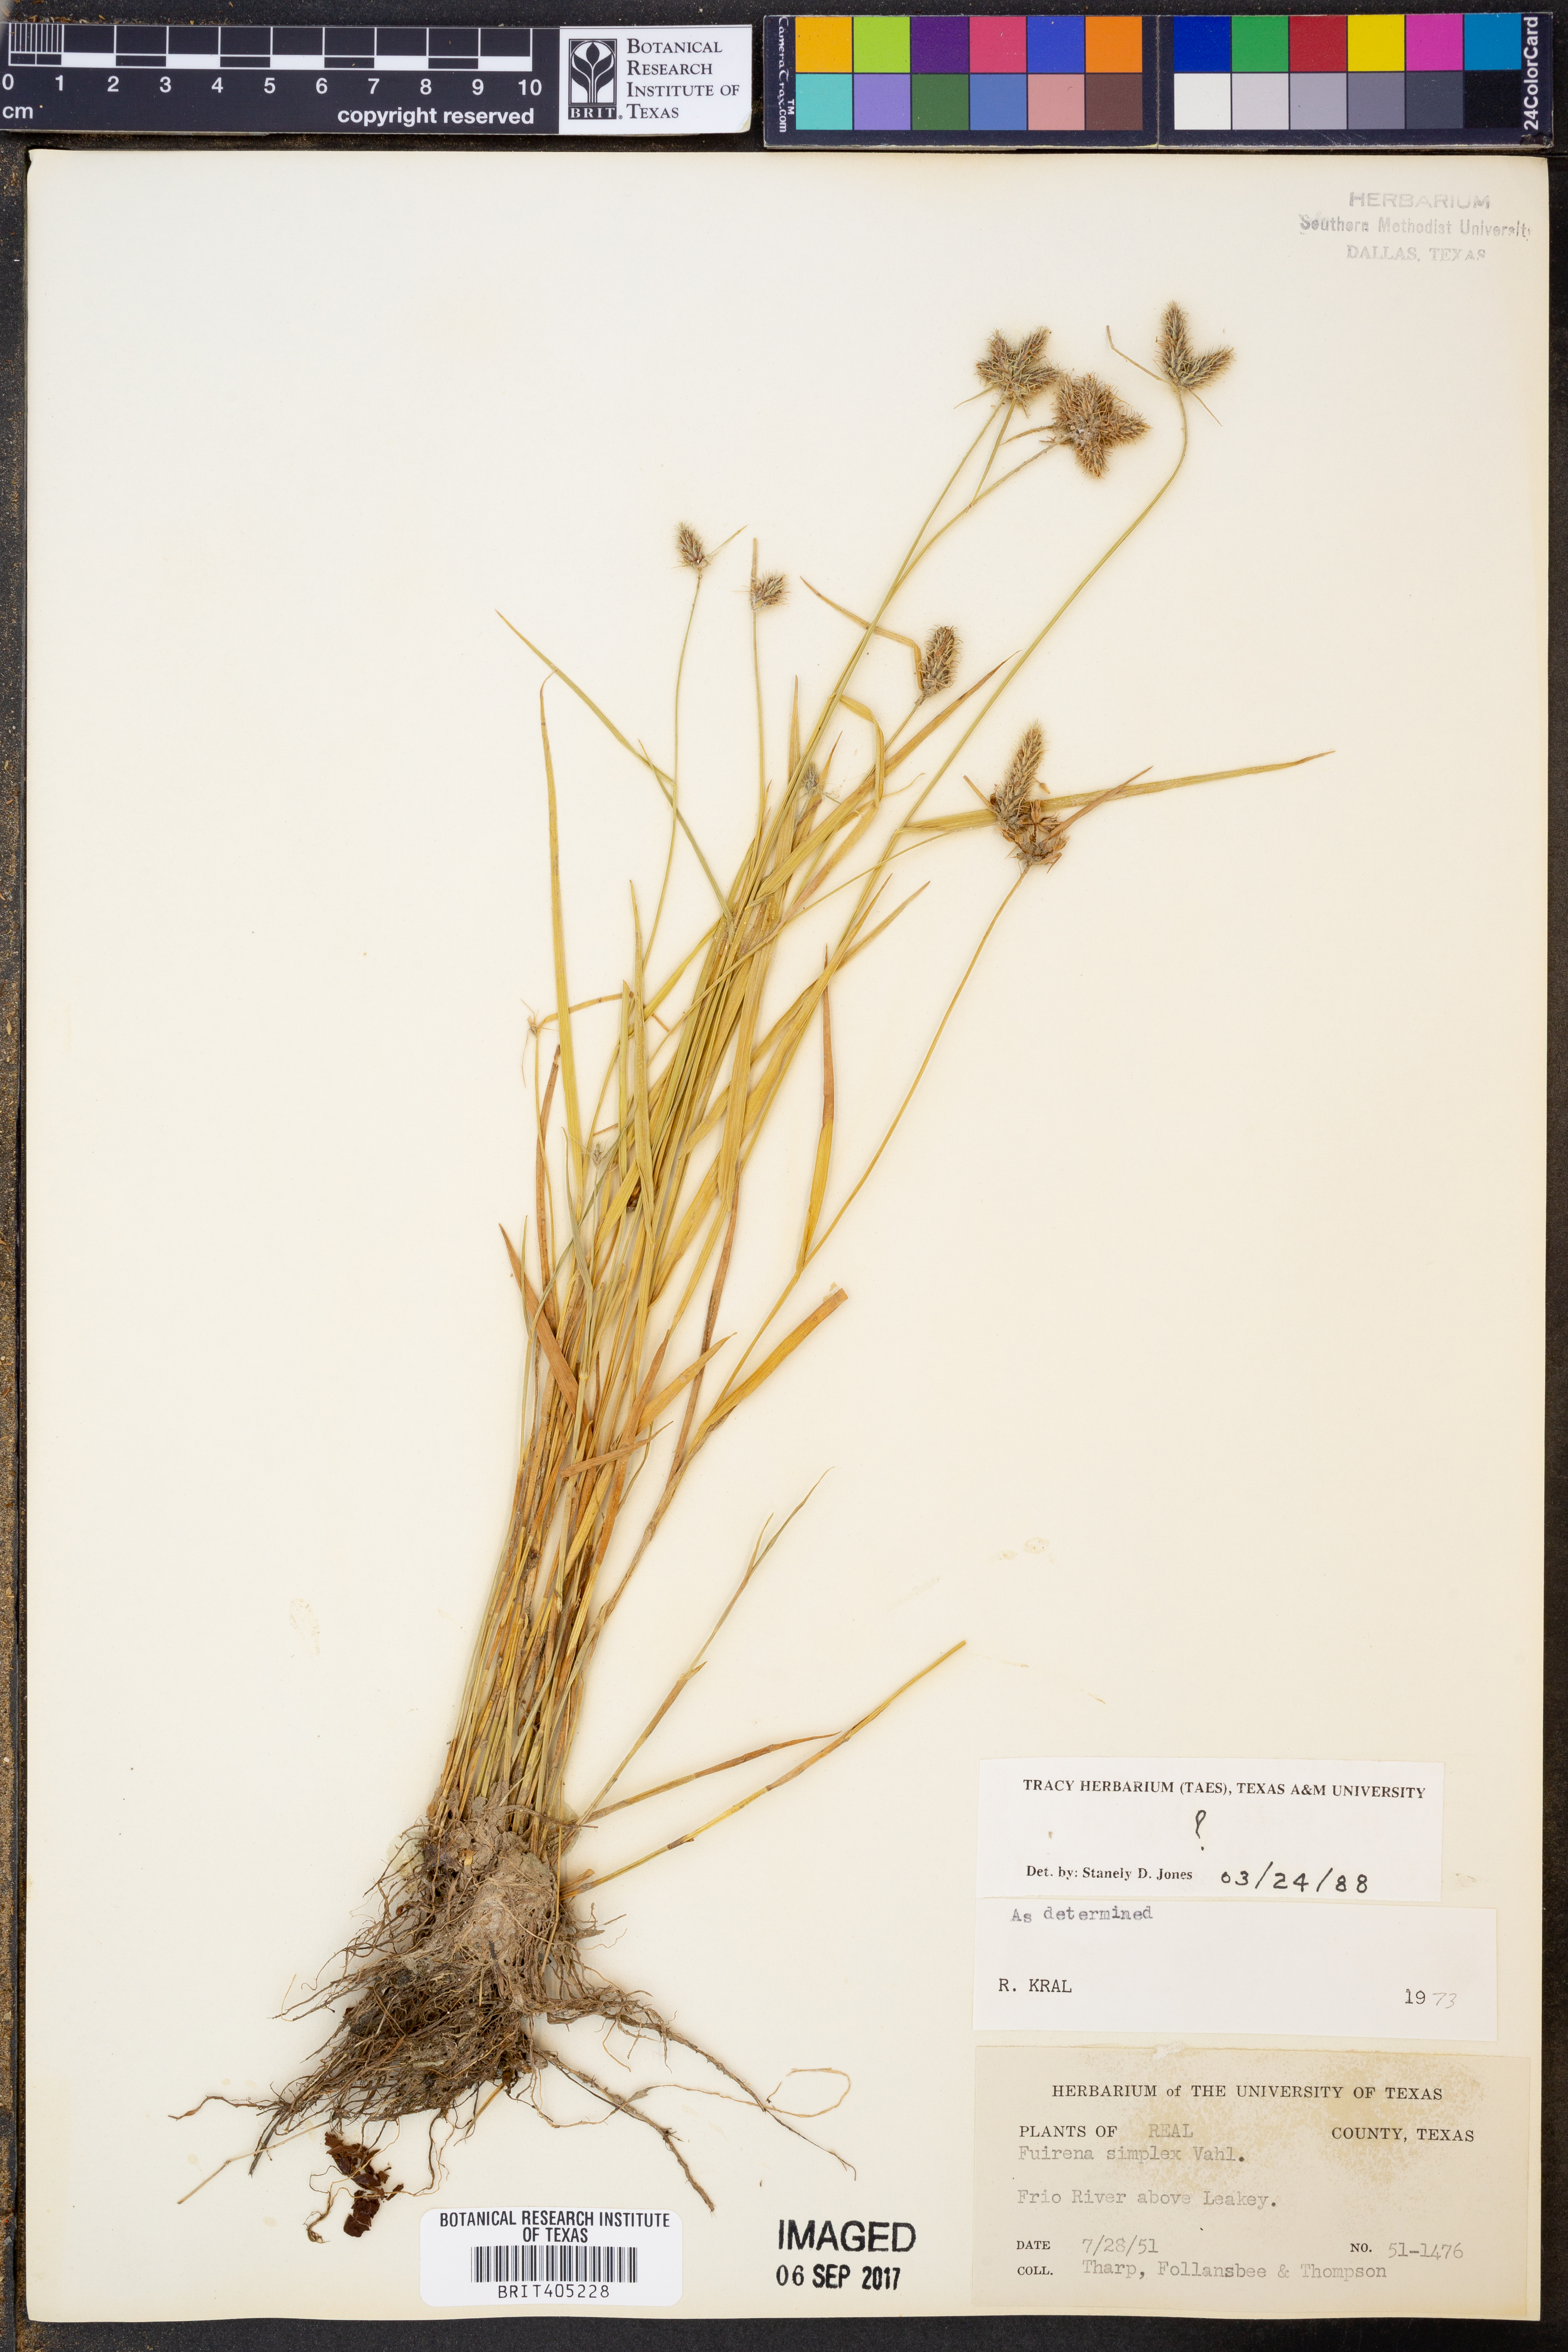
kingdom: Plantae
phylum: Tracheophyta
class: Liliopsida
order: Poales
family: Cyperaceae
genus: Fuirena
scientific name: Fuirena simplex
